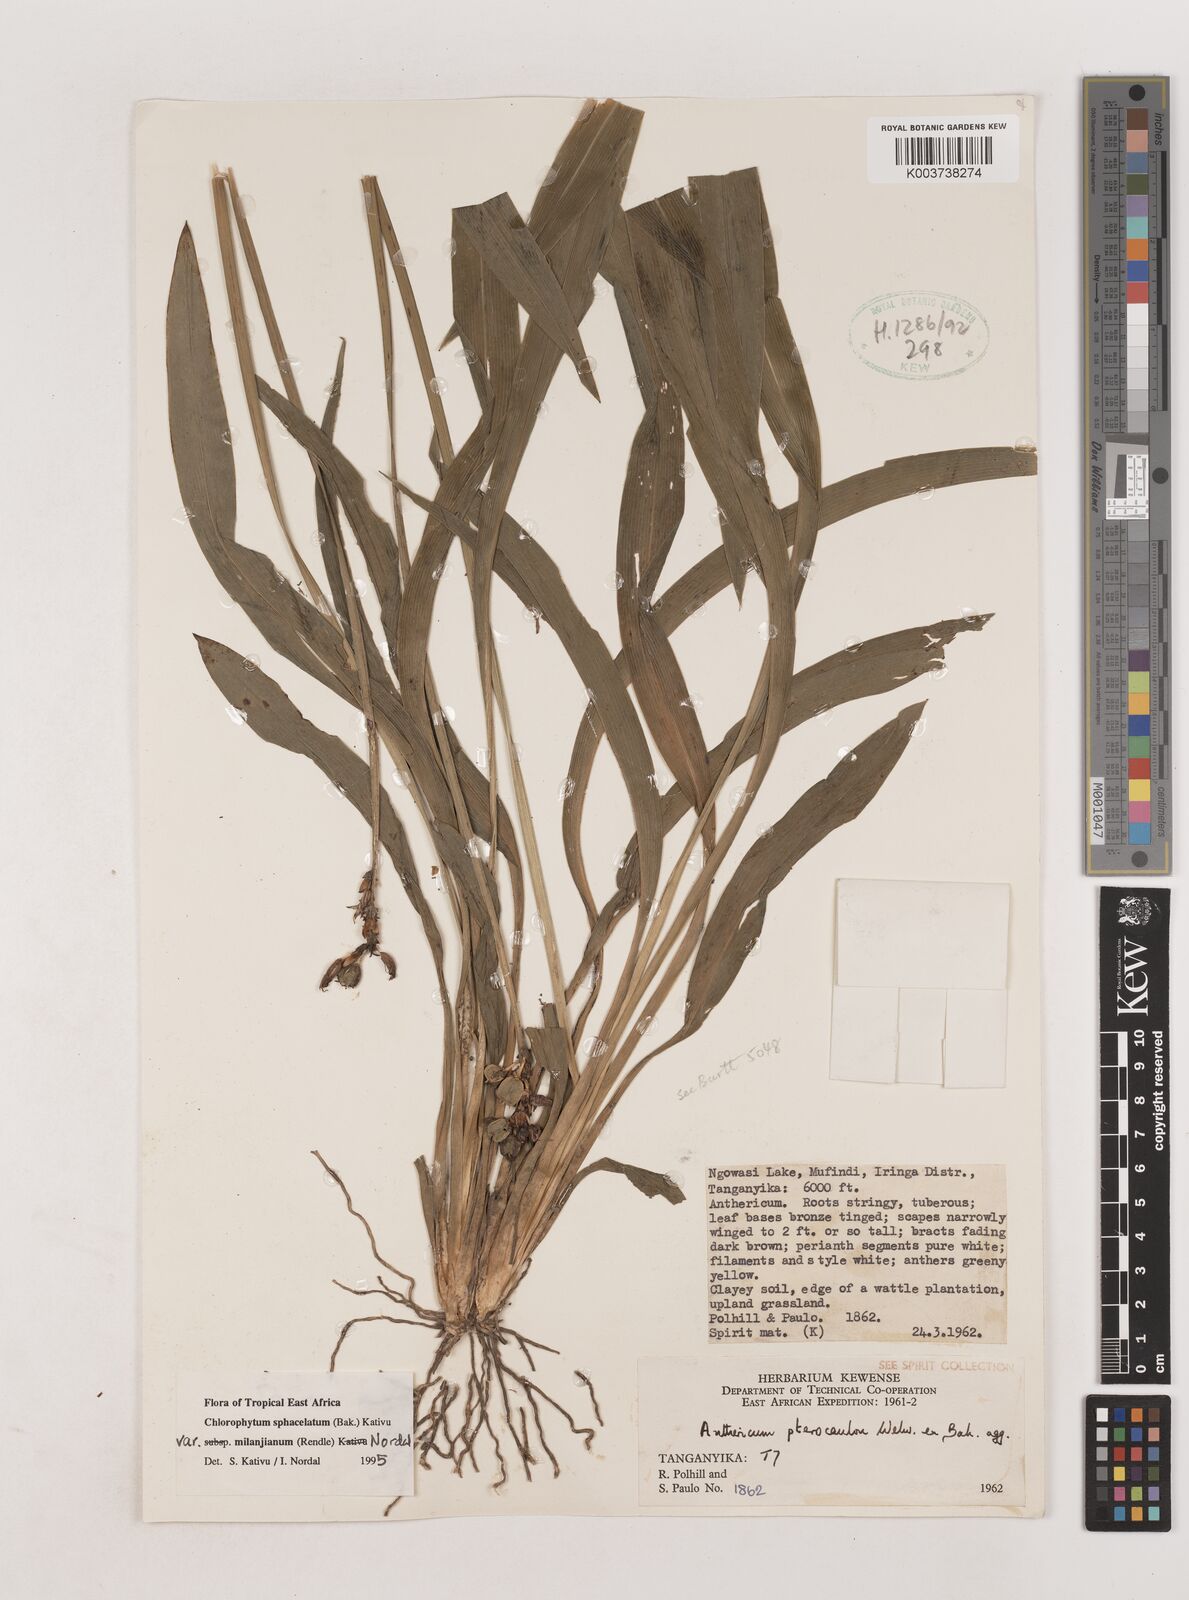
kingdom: Plantae
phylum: Tracheophyta
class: Liliopsida
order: Asparagales
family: Asparagaceae
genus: Chlorophytum
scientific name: Chlorophytum sphacelatum
